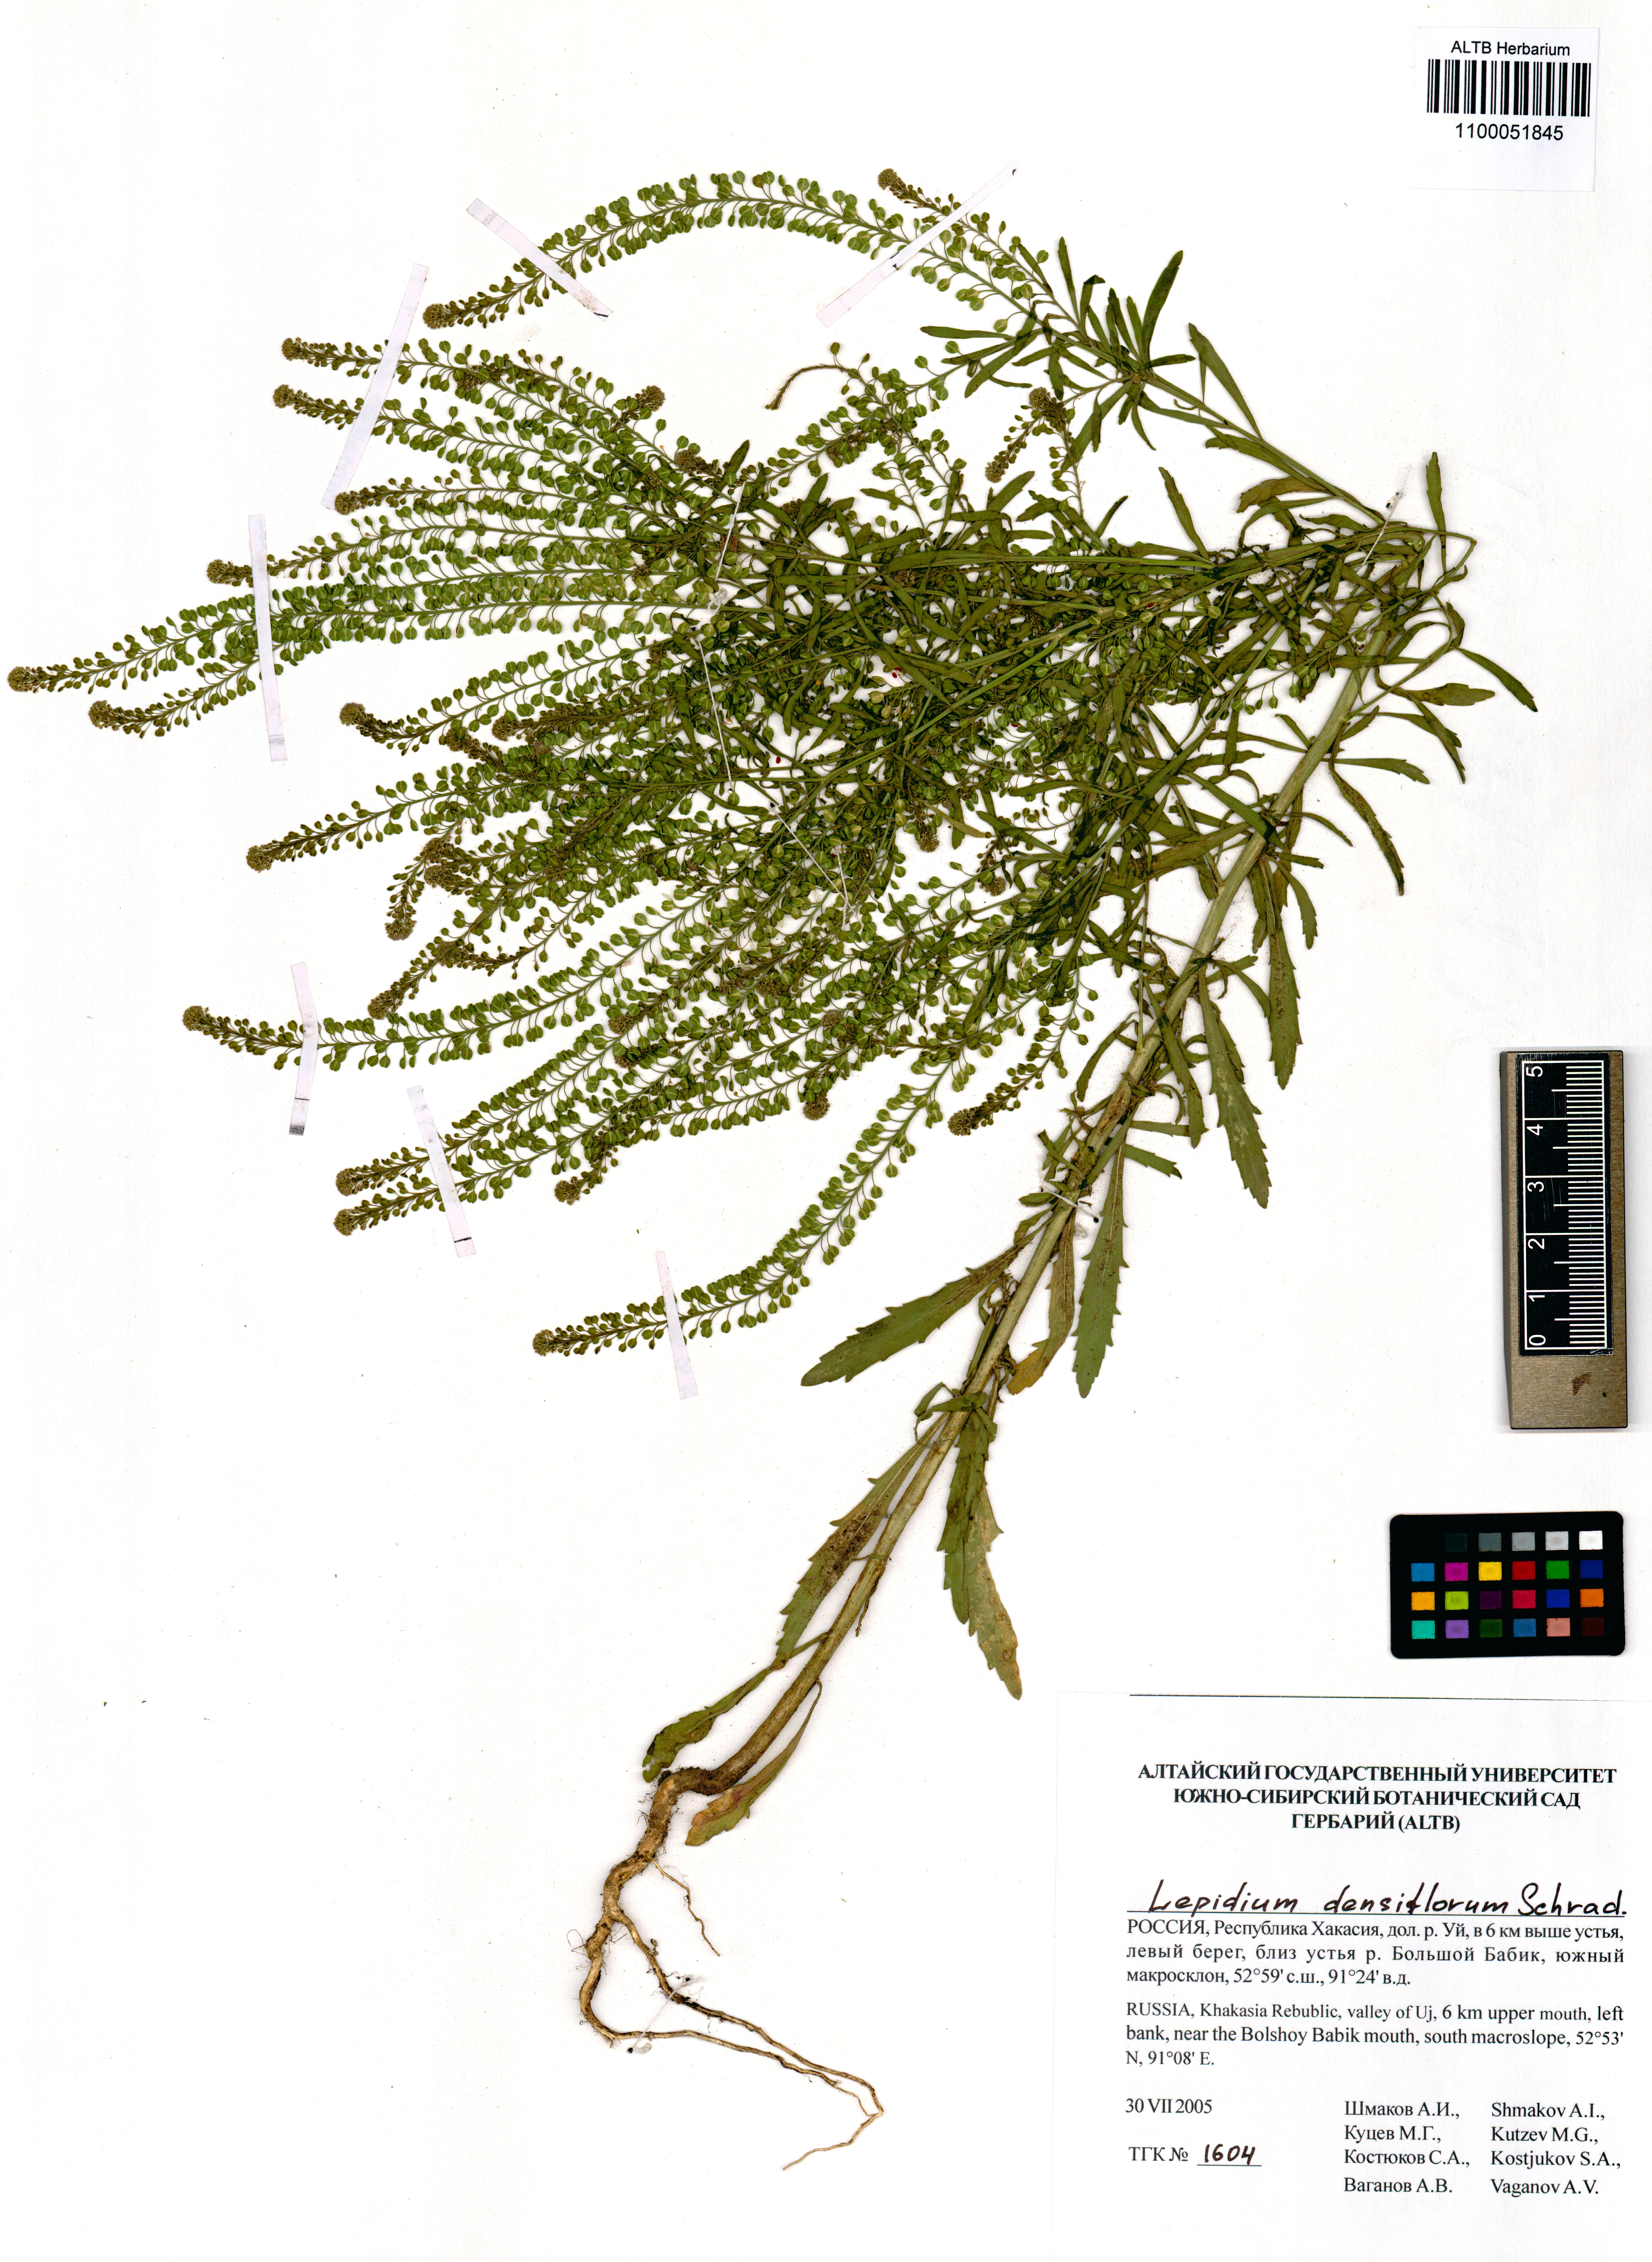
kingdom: Plantae
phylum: Tracheophyta
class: Magnoliopsida
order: Brassicales
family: Brassicaceae
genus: Lepidium
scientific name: Lepidium densiflorum
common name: Miner's pepperwort
